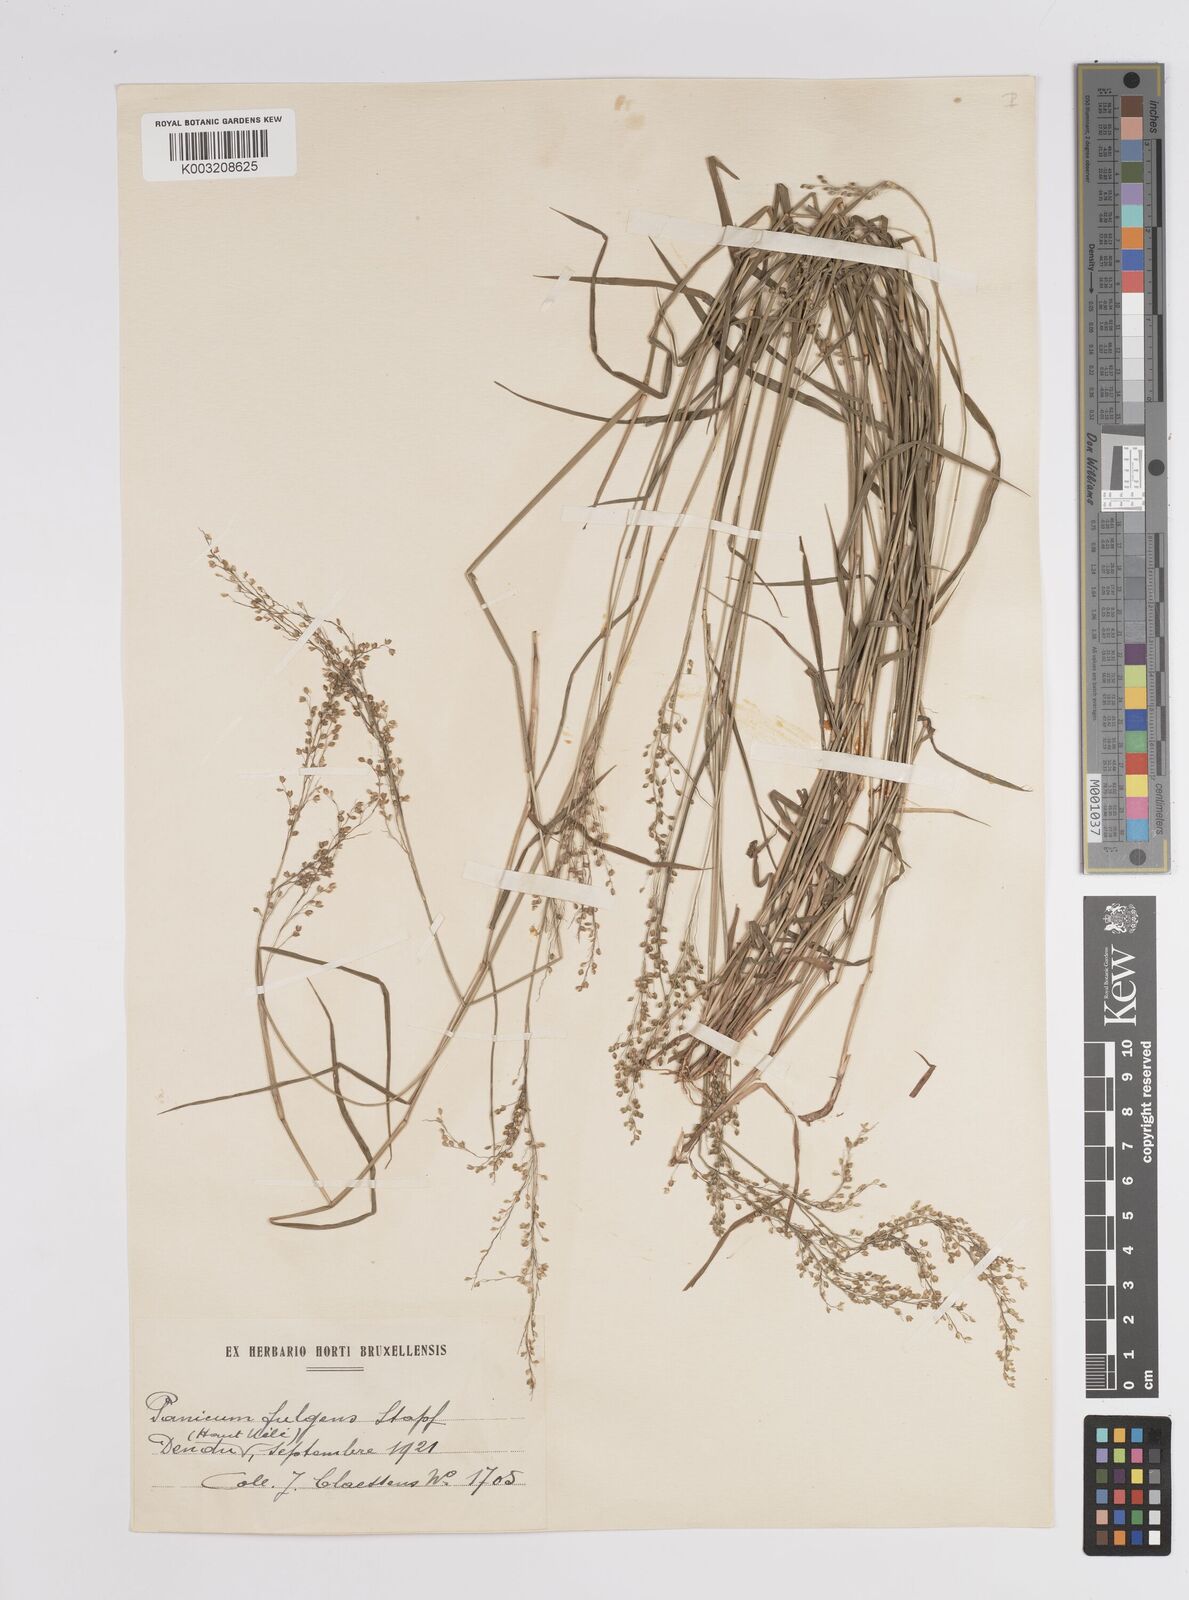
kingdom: Plantae
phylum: Tracheophyta
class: Liliopsida
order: Poales
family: Poaceae
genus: Trichanthecium
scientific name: Trichanthecium nervatum
